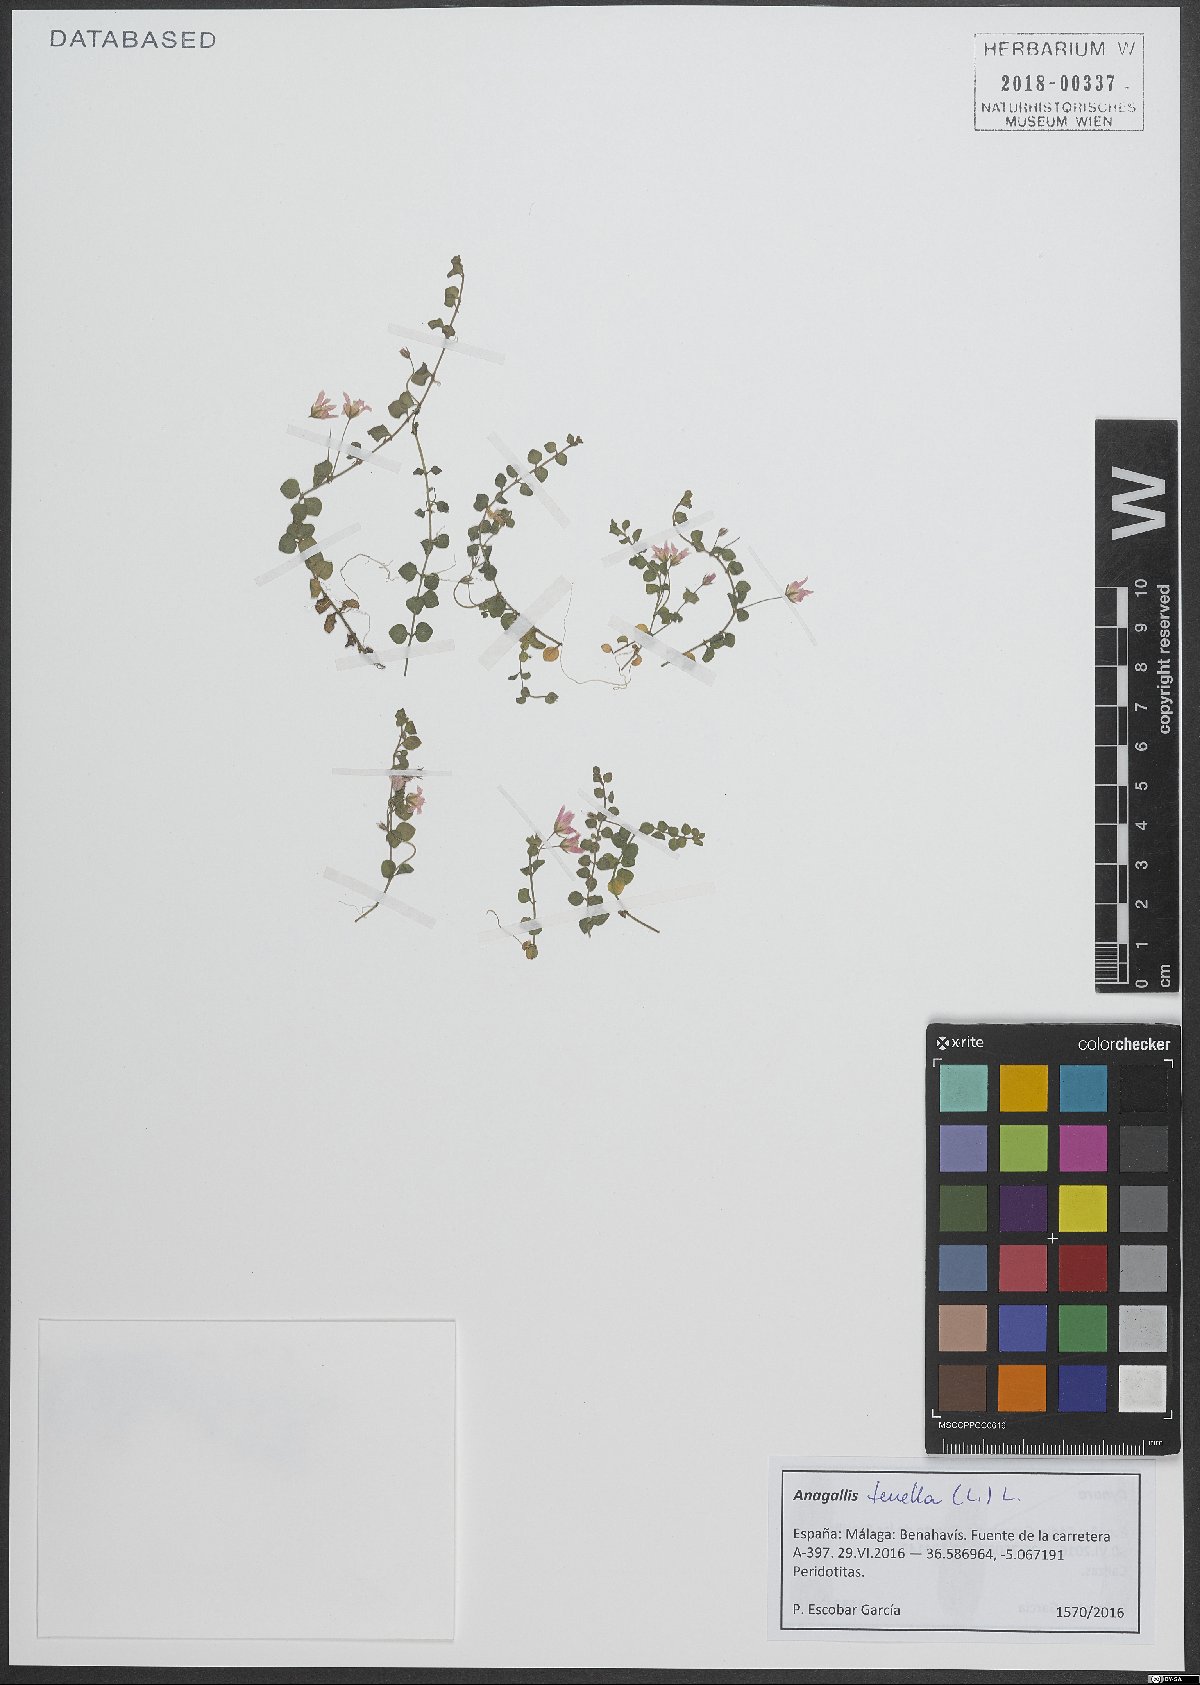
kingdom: Plantae
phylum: Tracheophyta
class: Magnoliopsida
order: Ericales
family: Primulaceae
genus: Lysimachia
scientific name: Lysimachia tenella
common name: European bog pimpernel
